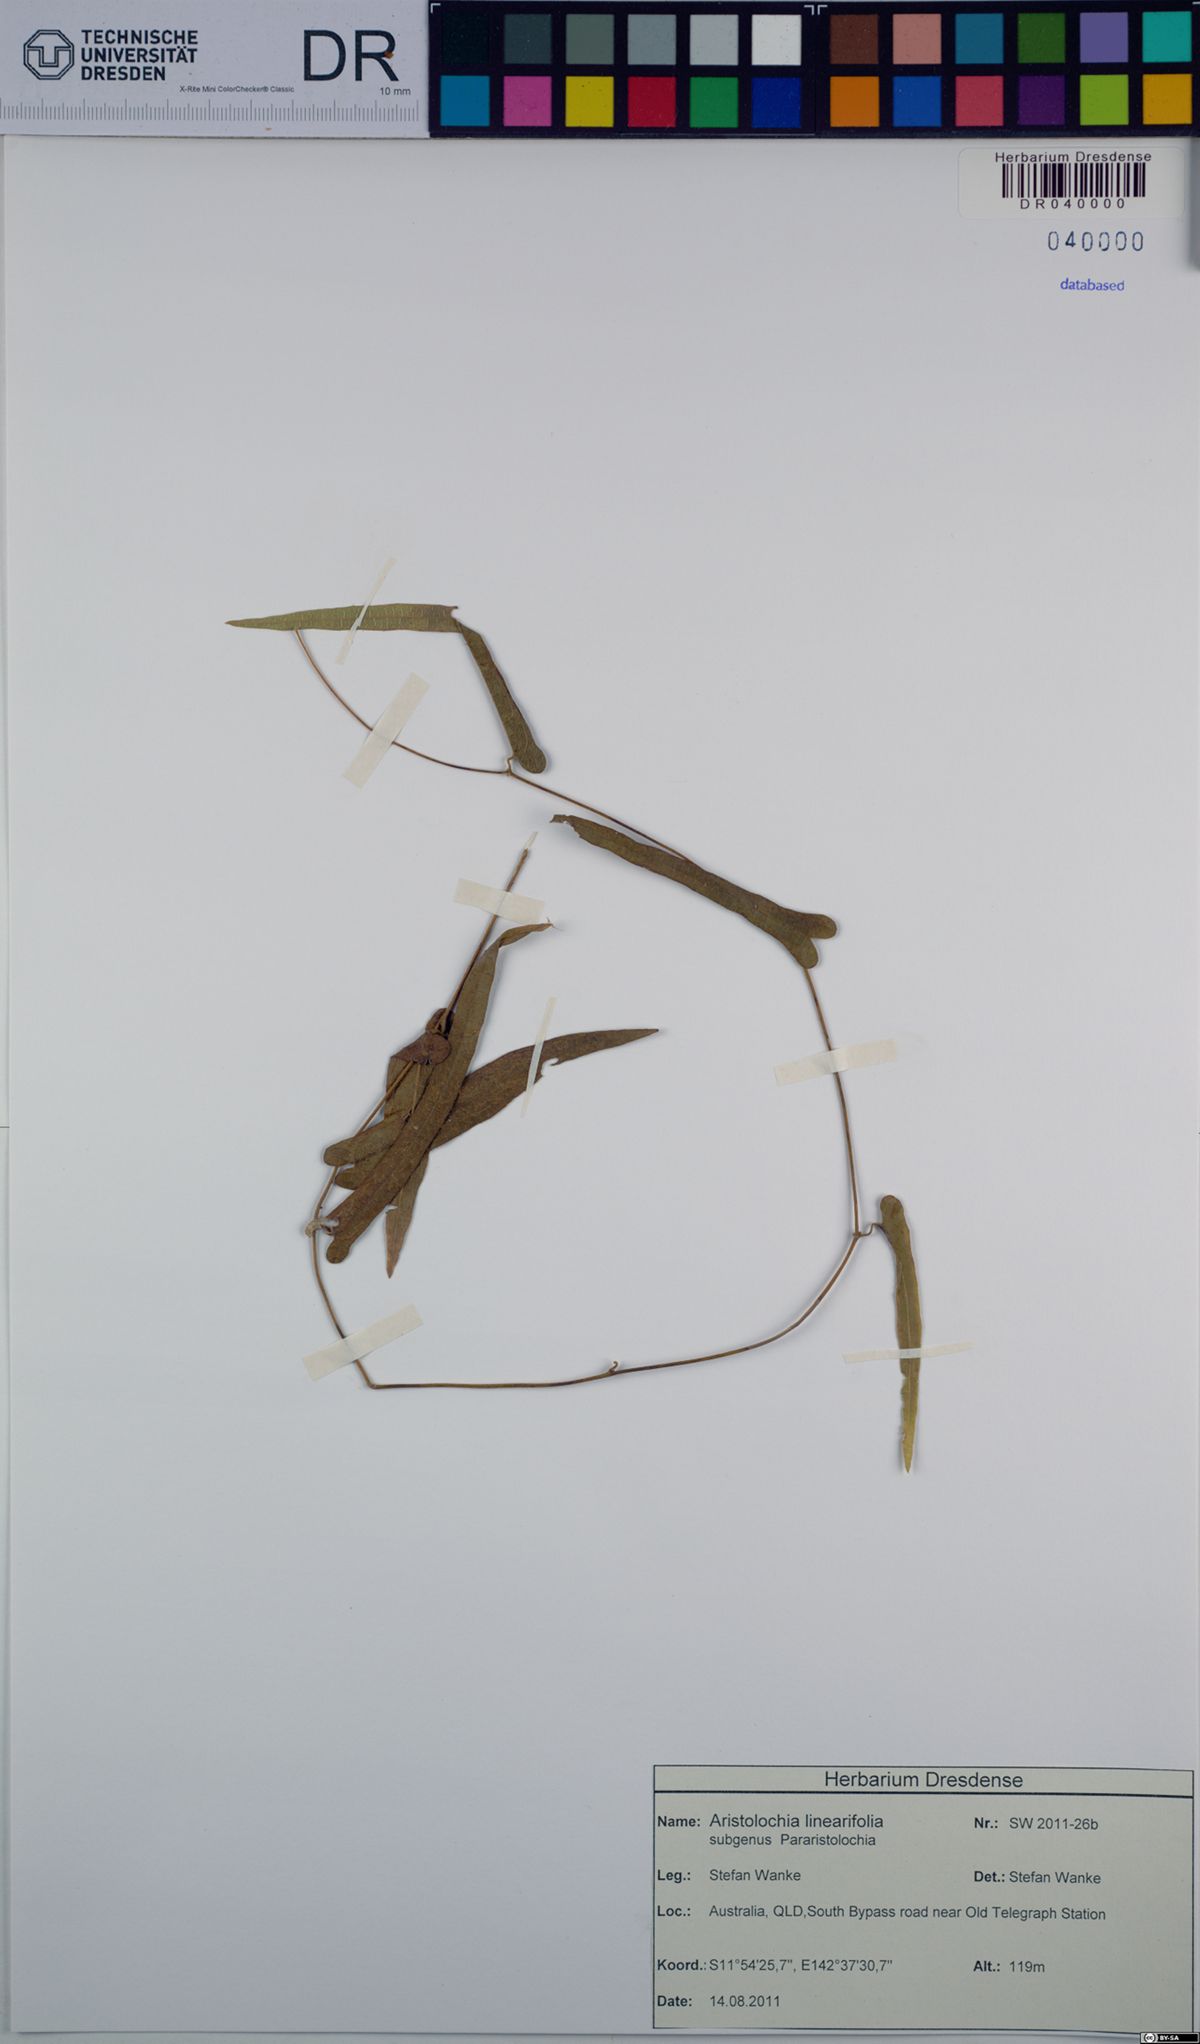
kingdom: Plantae
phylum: Tracheophyta
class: Magnoliopsida
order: Piperales
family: Aristolochiaceae
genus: Aristolochia
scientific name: Aristolochia linearifolia
